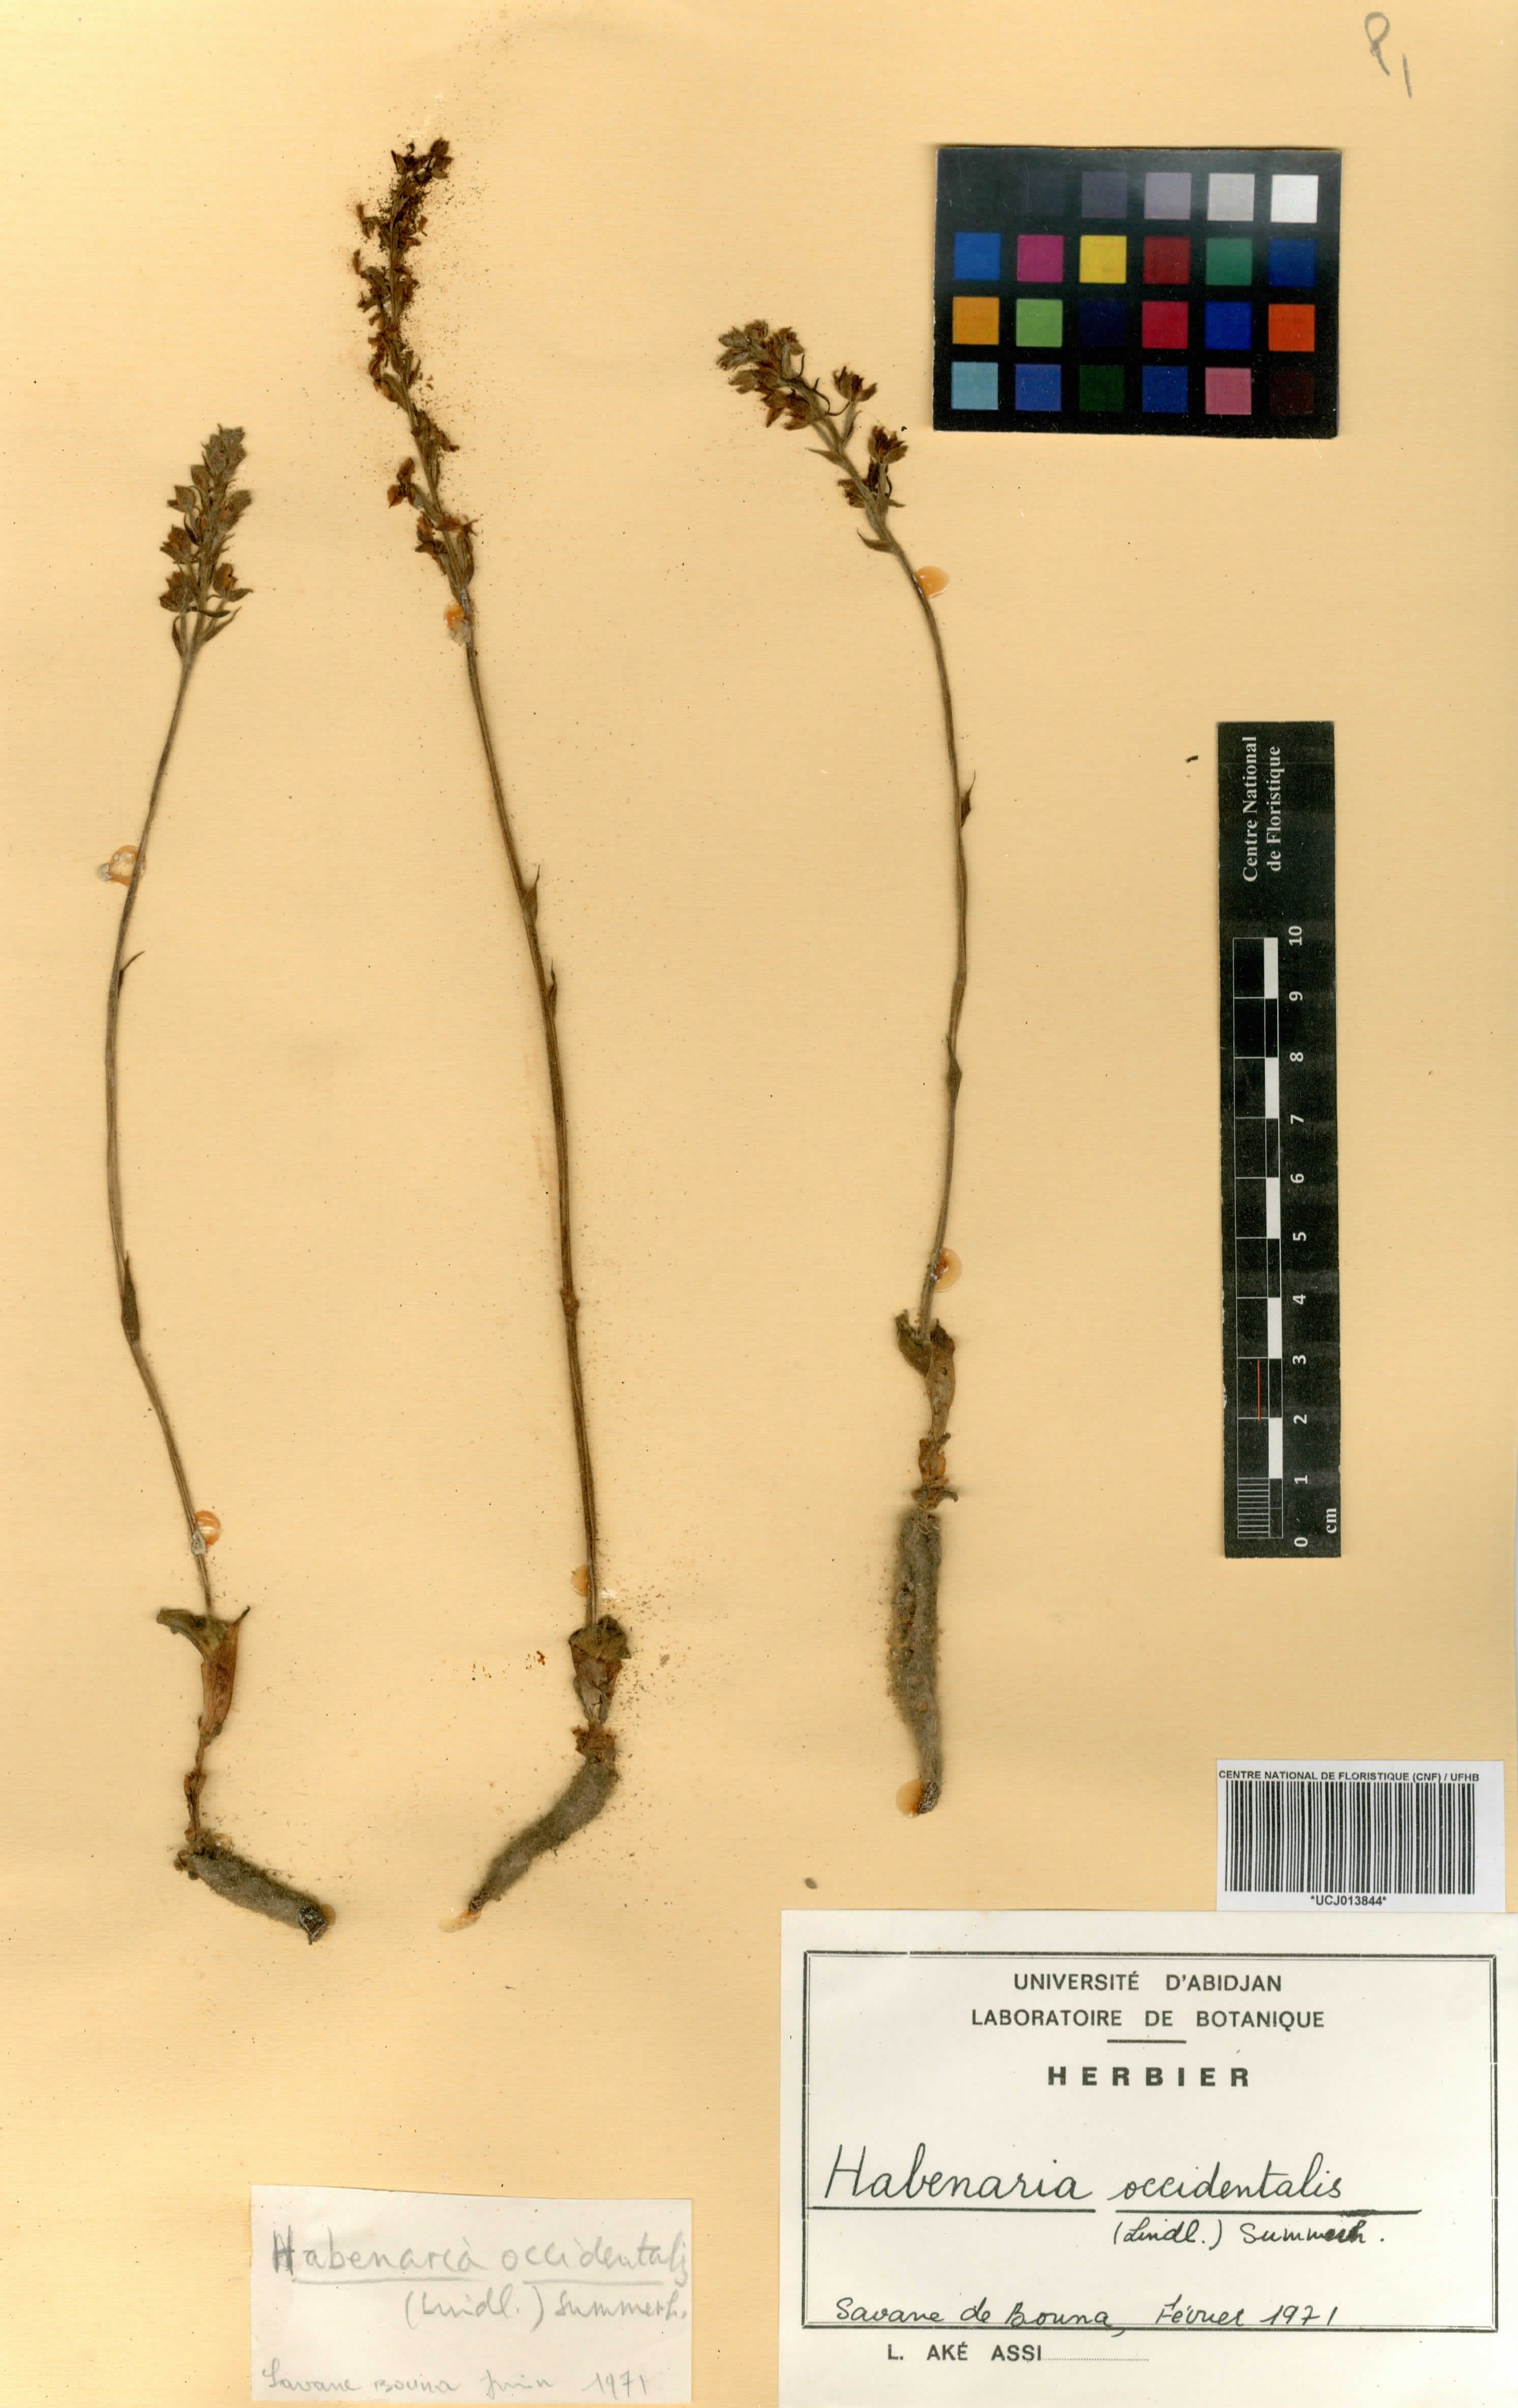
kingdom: Plantae
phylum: Tracheophyta
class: Liliopsida
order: Asparagales
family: Orchidaceae
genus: Habenaria
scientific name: Habenaria occidentalis
